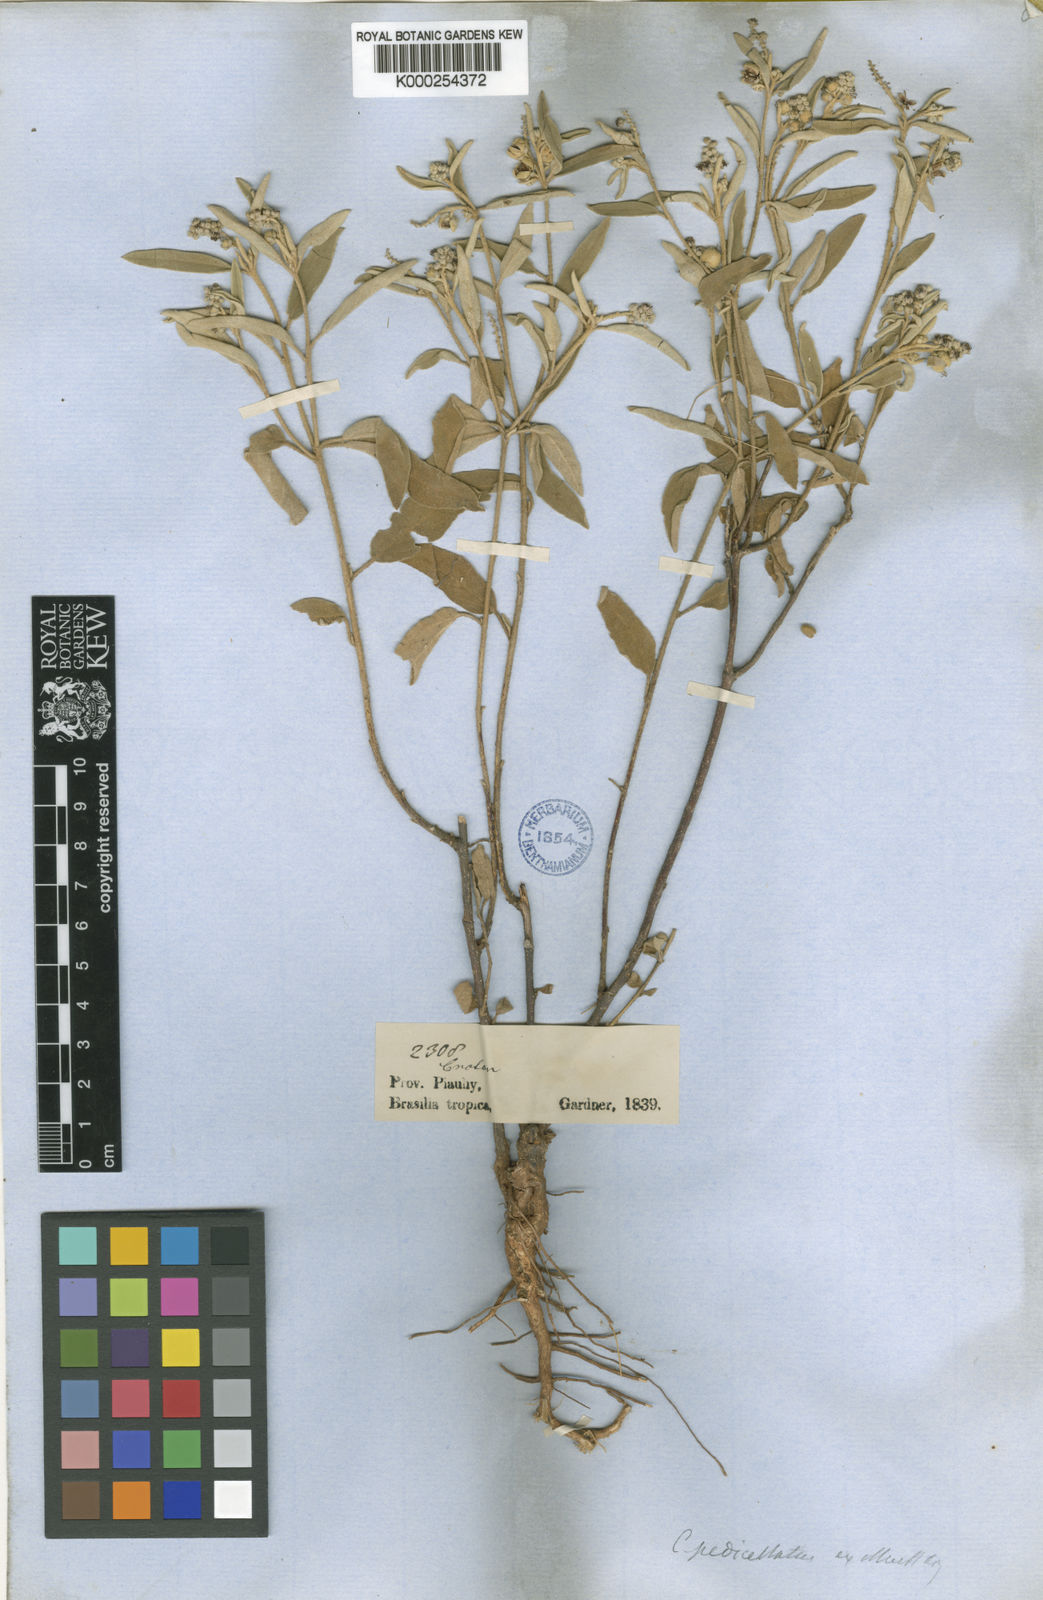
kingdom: Plantae
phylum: Tracheophyta
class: Magnoliopsida
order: Malpighiales
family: Euphorbiaceae
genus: Croton
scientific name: Croton pedicellatus
